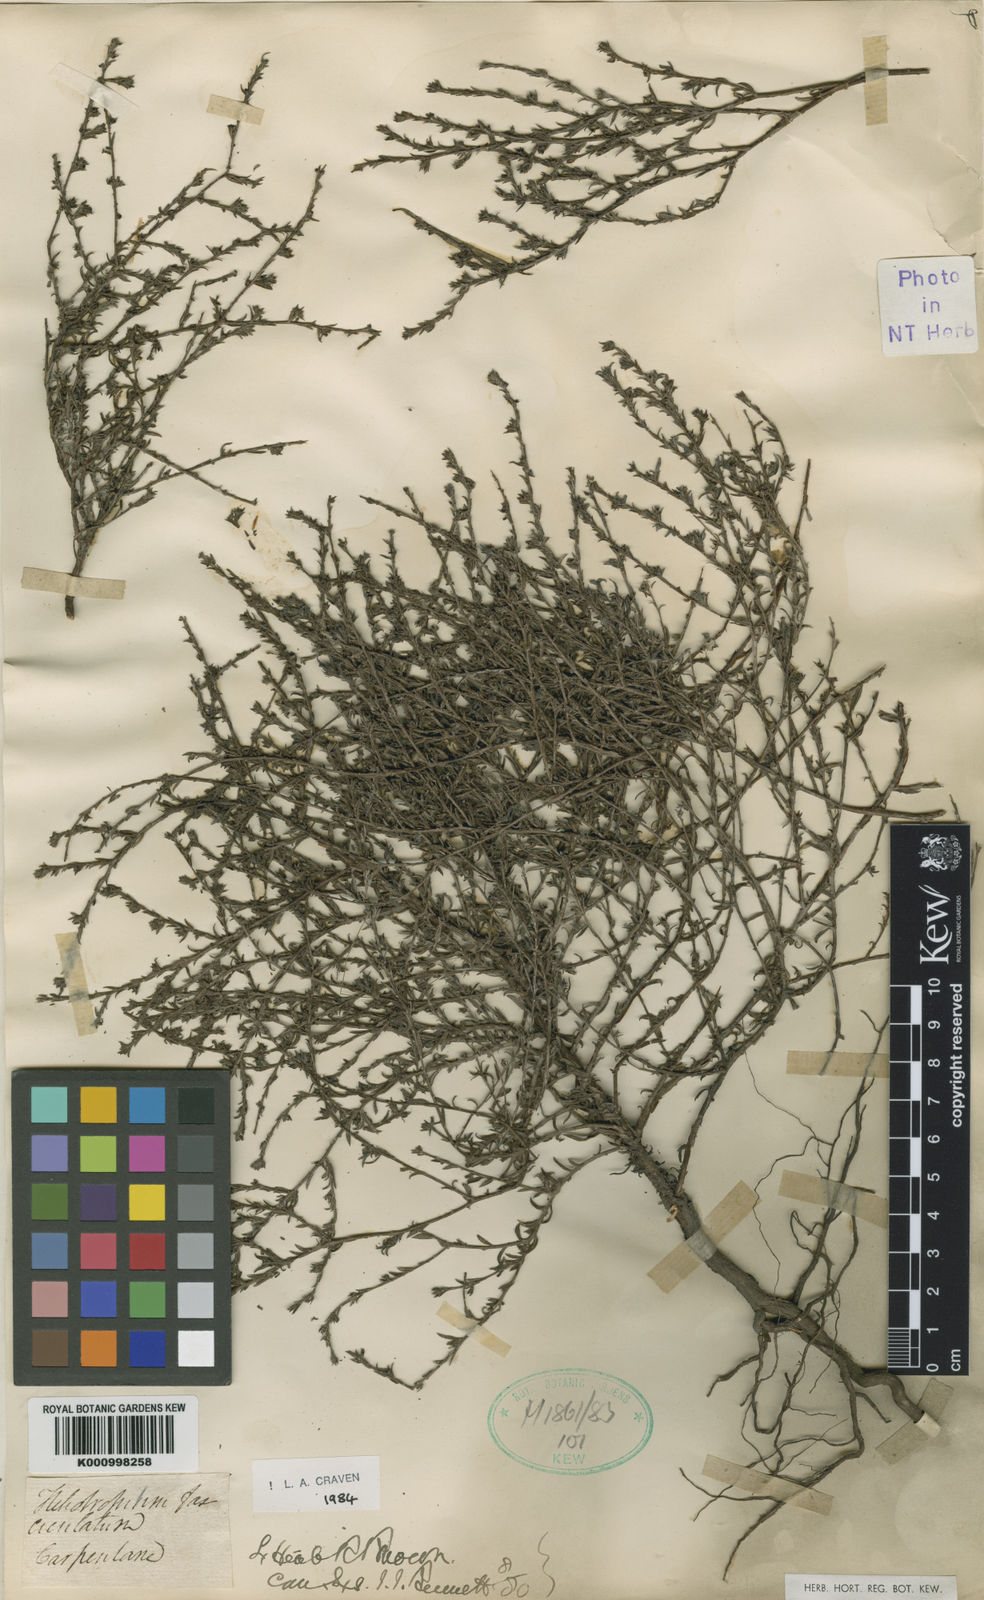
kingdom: Plantae
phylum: Tracheophyta
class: Magnoliopsida
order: Boraginales
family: Heliotropiaceae
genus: Euploca
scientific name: Euploca fasciculata
